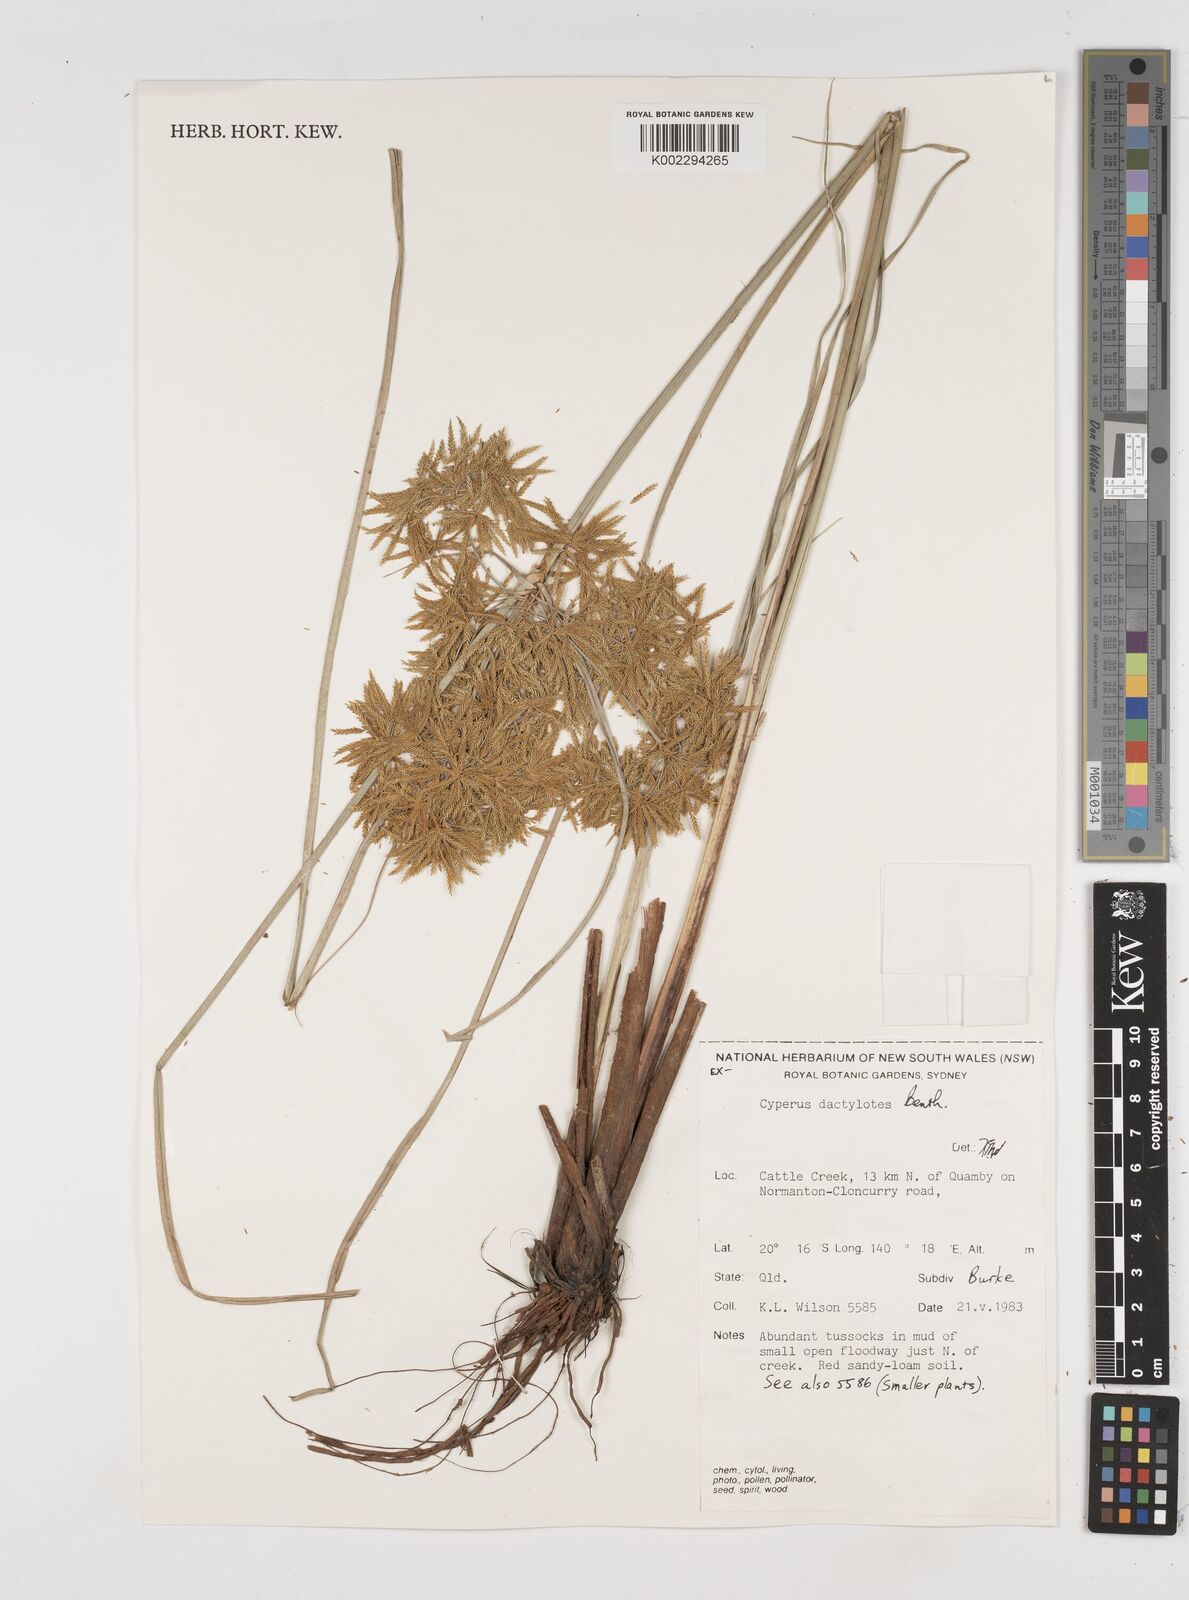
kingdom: Plantae
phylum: Tracheophyta
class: Liliopsida
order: Poales
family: Cyperaceae
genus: Cyperus
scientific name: Cyperus dactylotes
